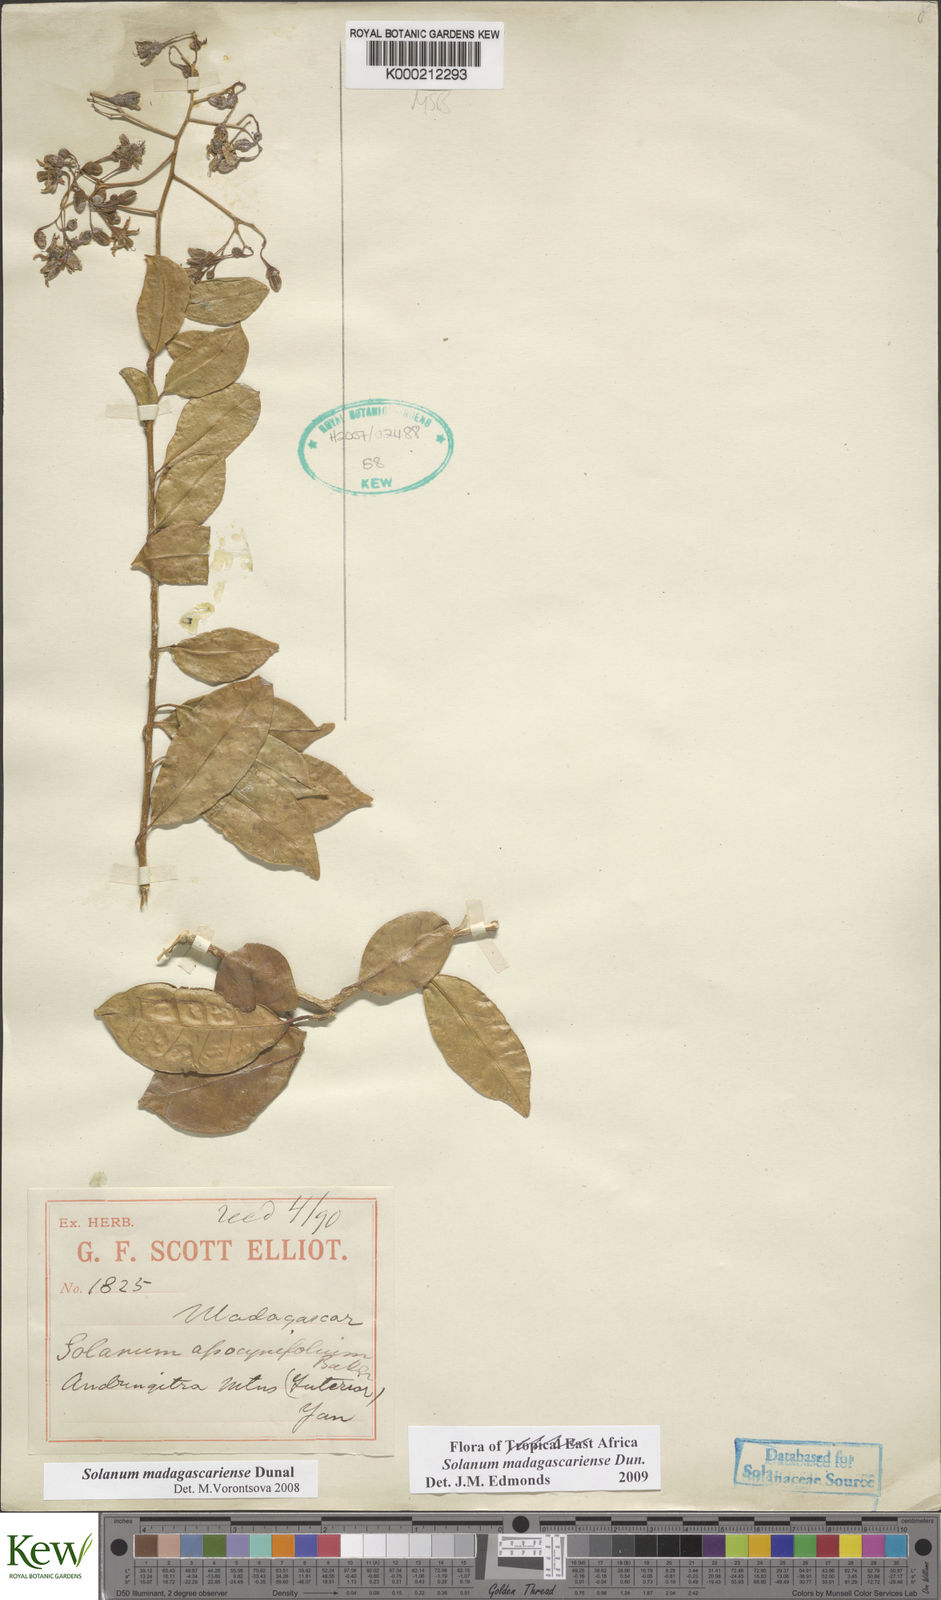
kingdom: Plantae
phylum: Tracheophyta
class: Magnoliopsida
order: Solanales
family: Solanaceae
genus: Solanum
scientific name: Solanum madagascariense
